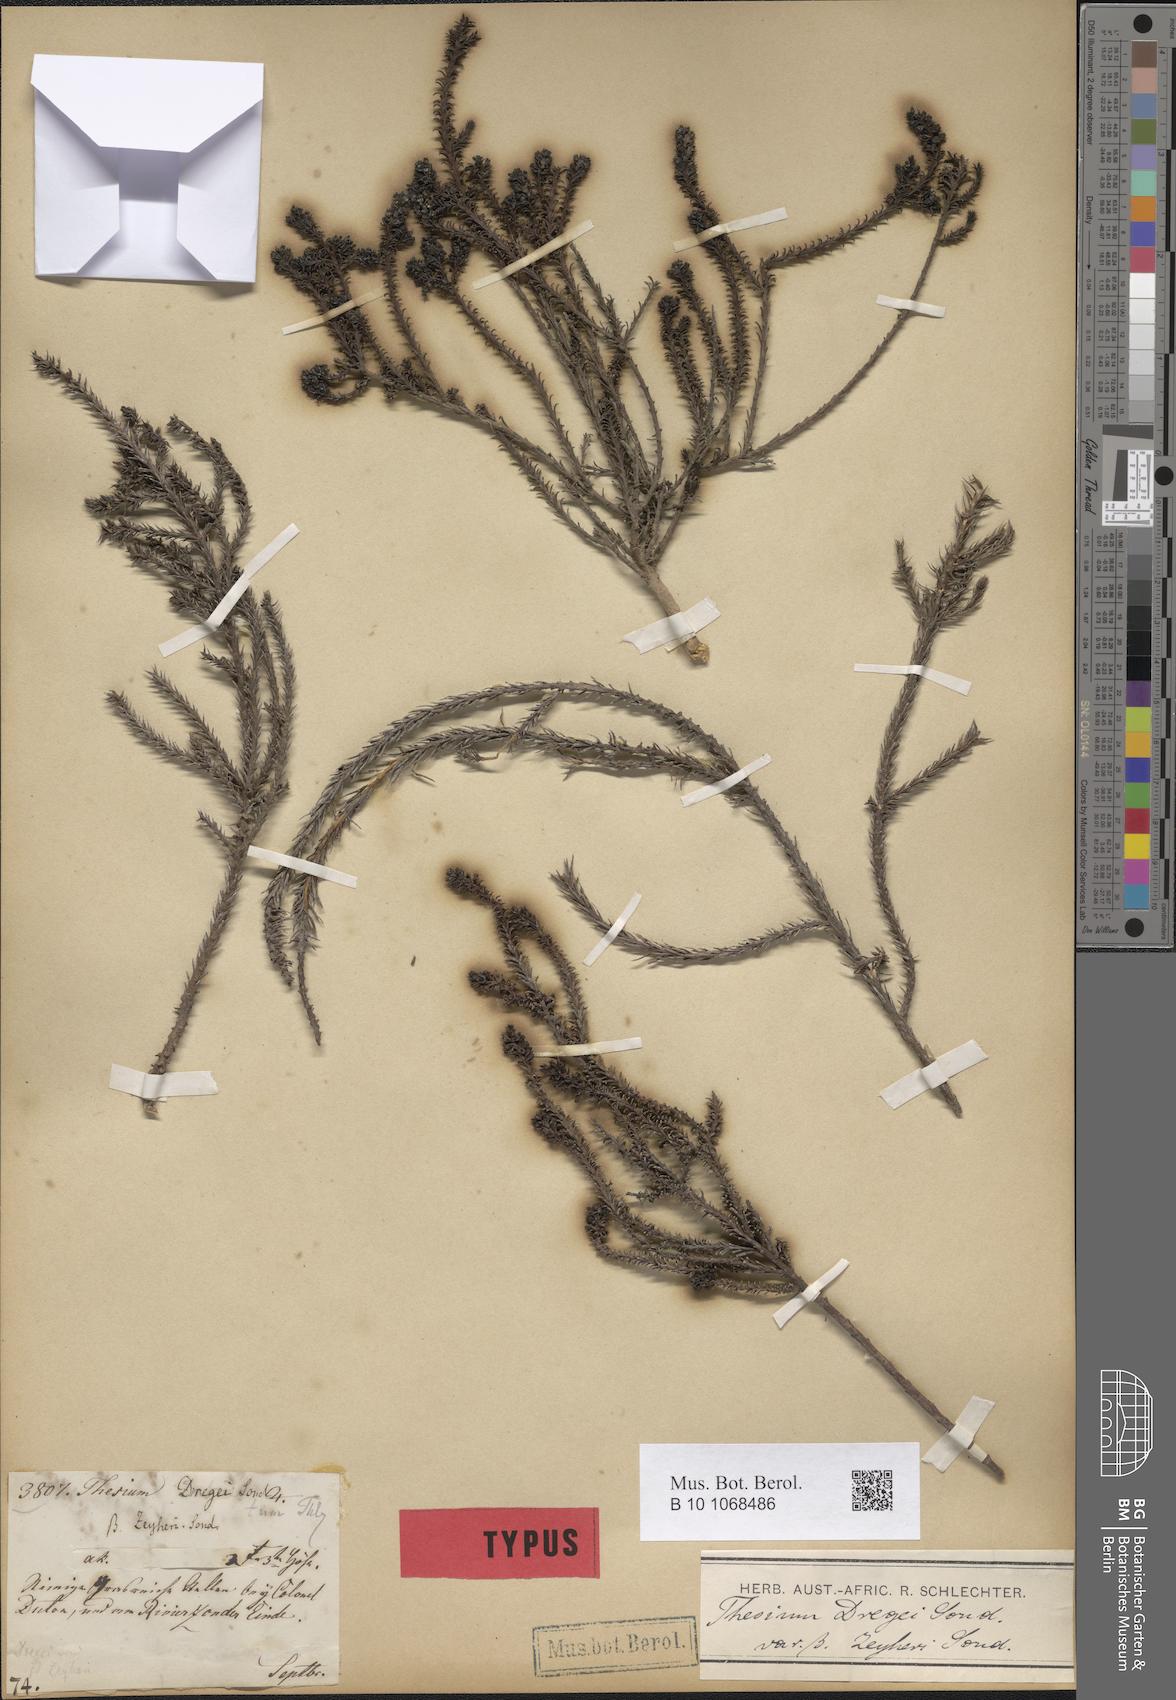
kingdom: Plantae
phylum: Tracheophyta
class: Magnoliopsida
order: Santalales
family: Thesiaceae
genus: Thesium
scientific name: Thesium gnidiaceum
